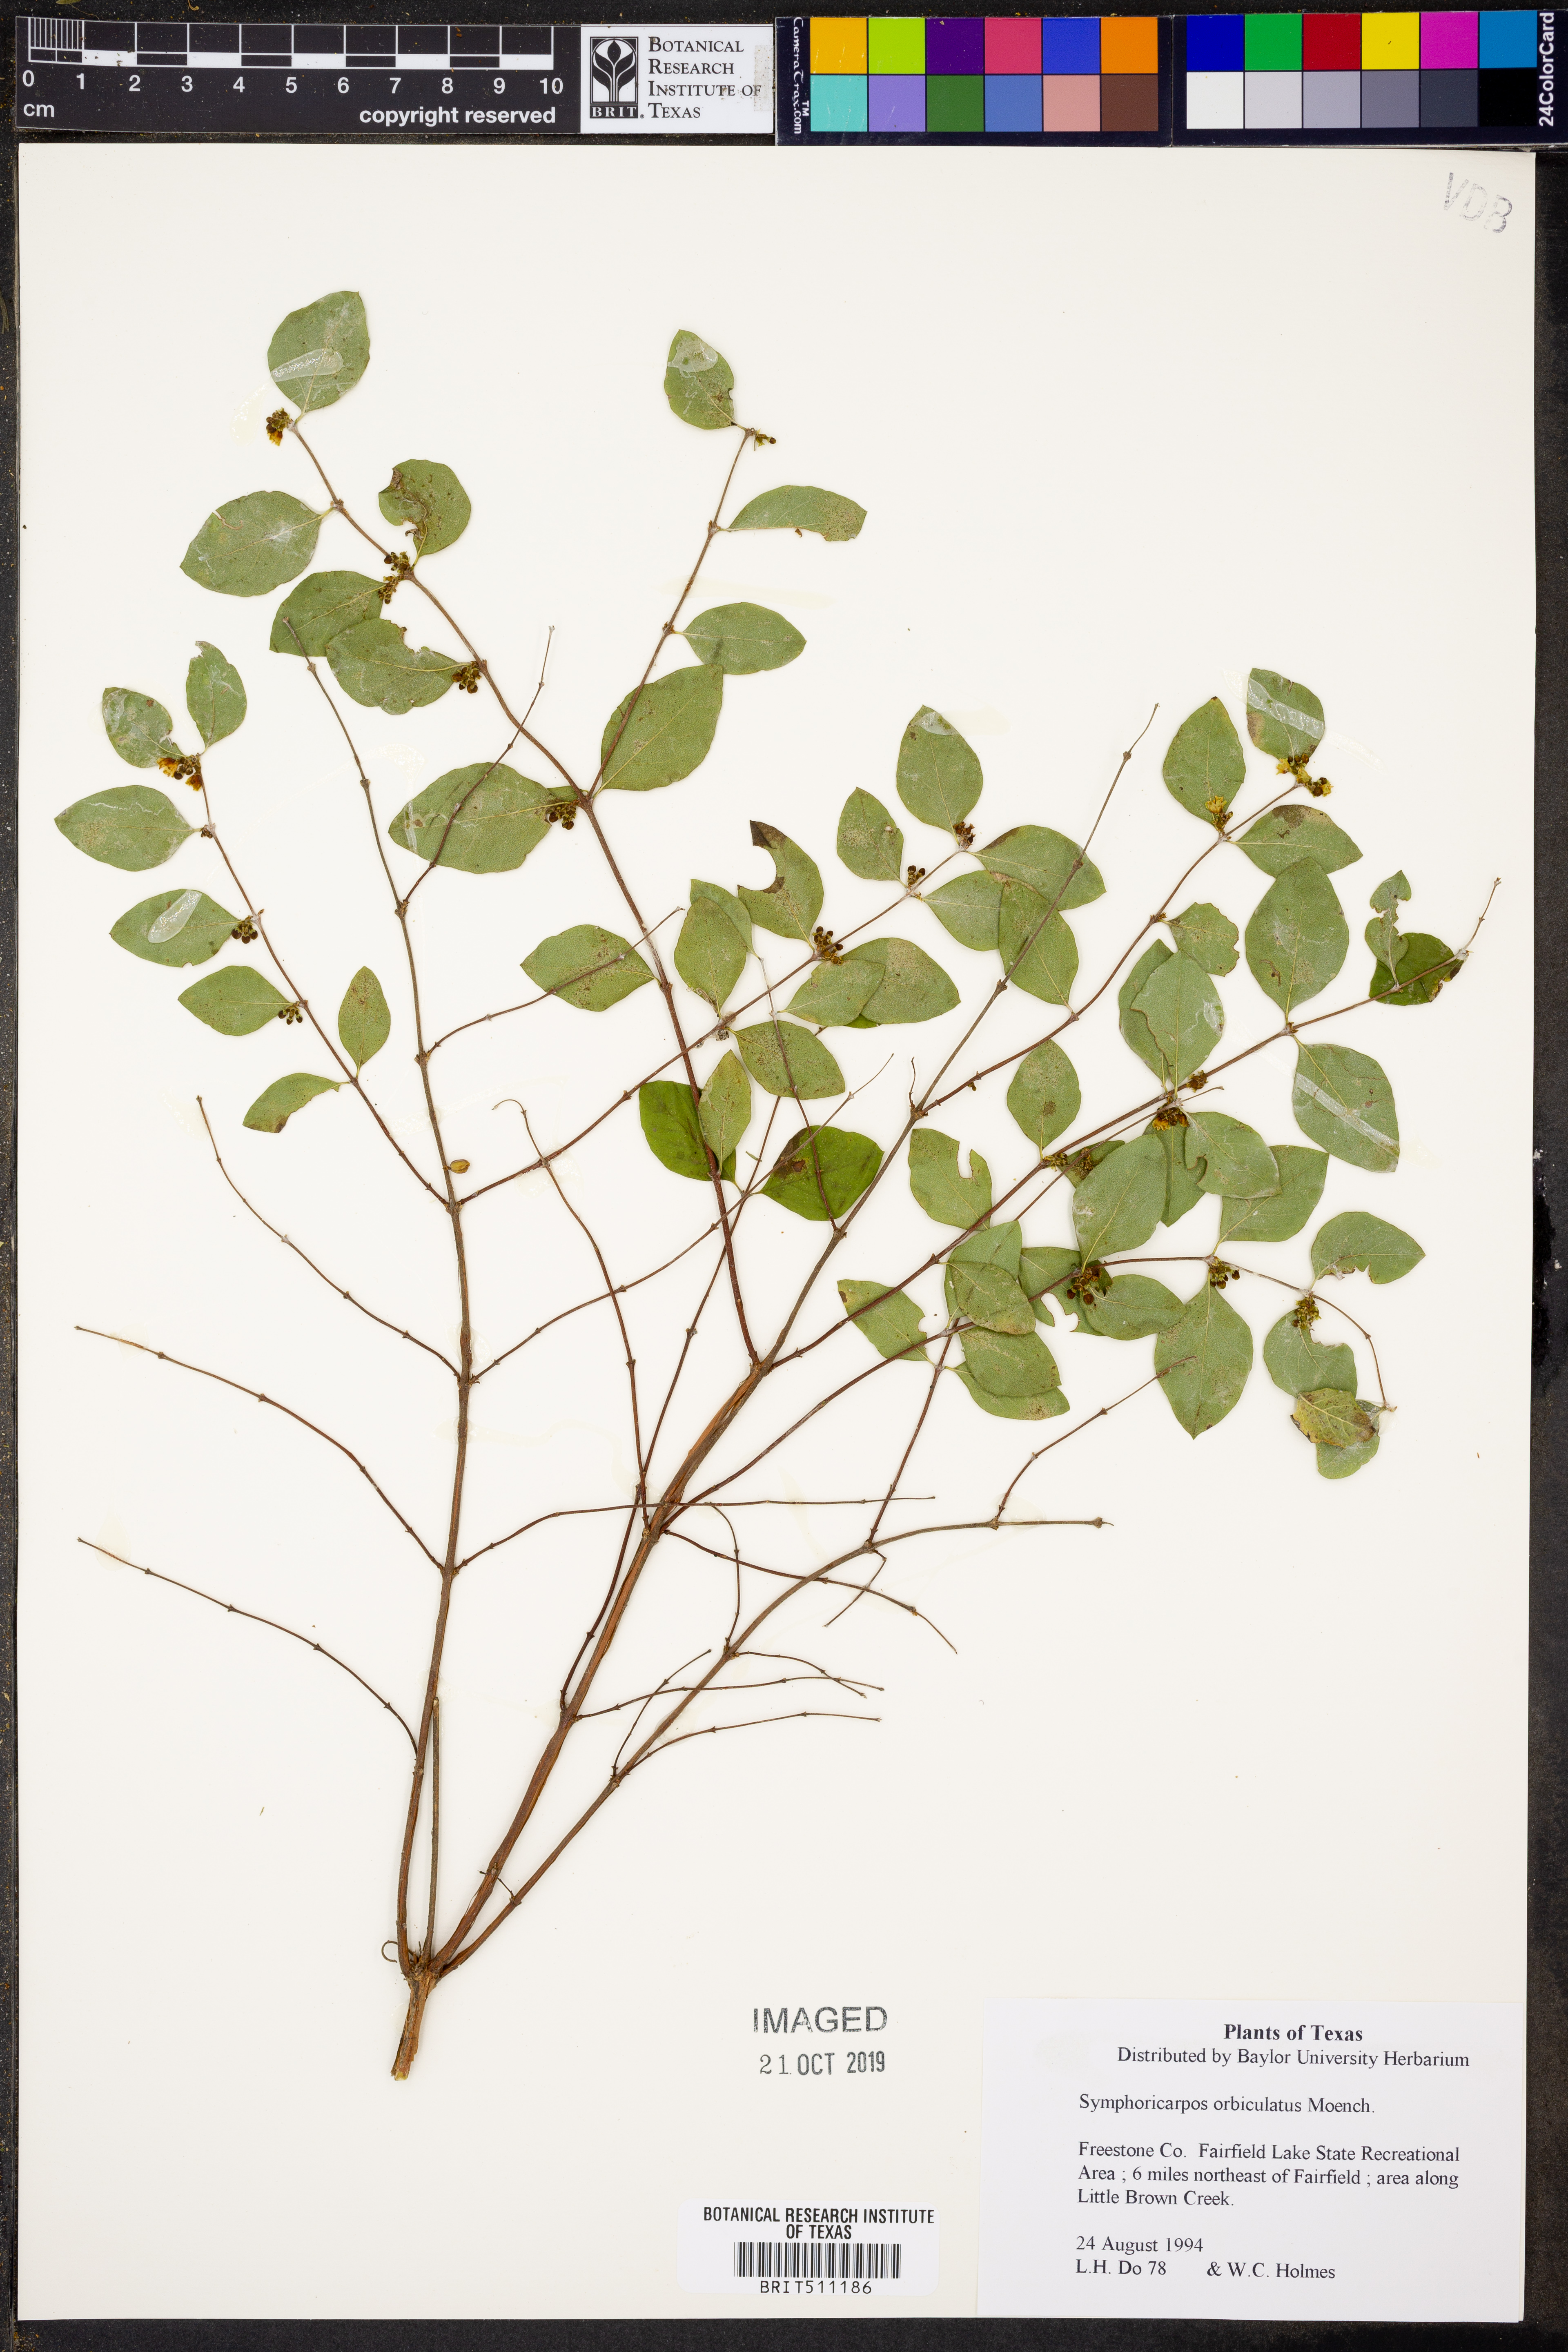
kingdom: Plantae
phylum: Tracheophyta
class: Magnoliopsida
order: Dipsacales
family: Caprifoliaceae
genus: Symphoricarpos
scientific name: Symphoricarpos orbiculatus
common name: Coralberry
